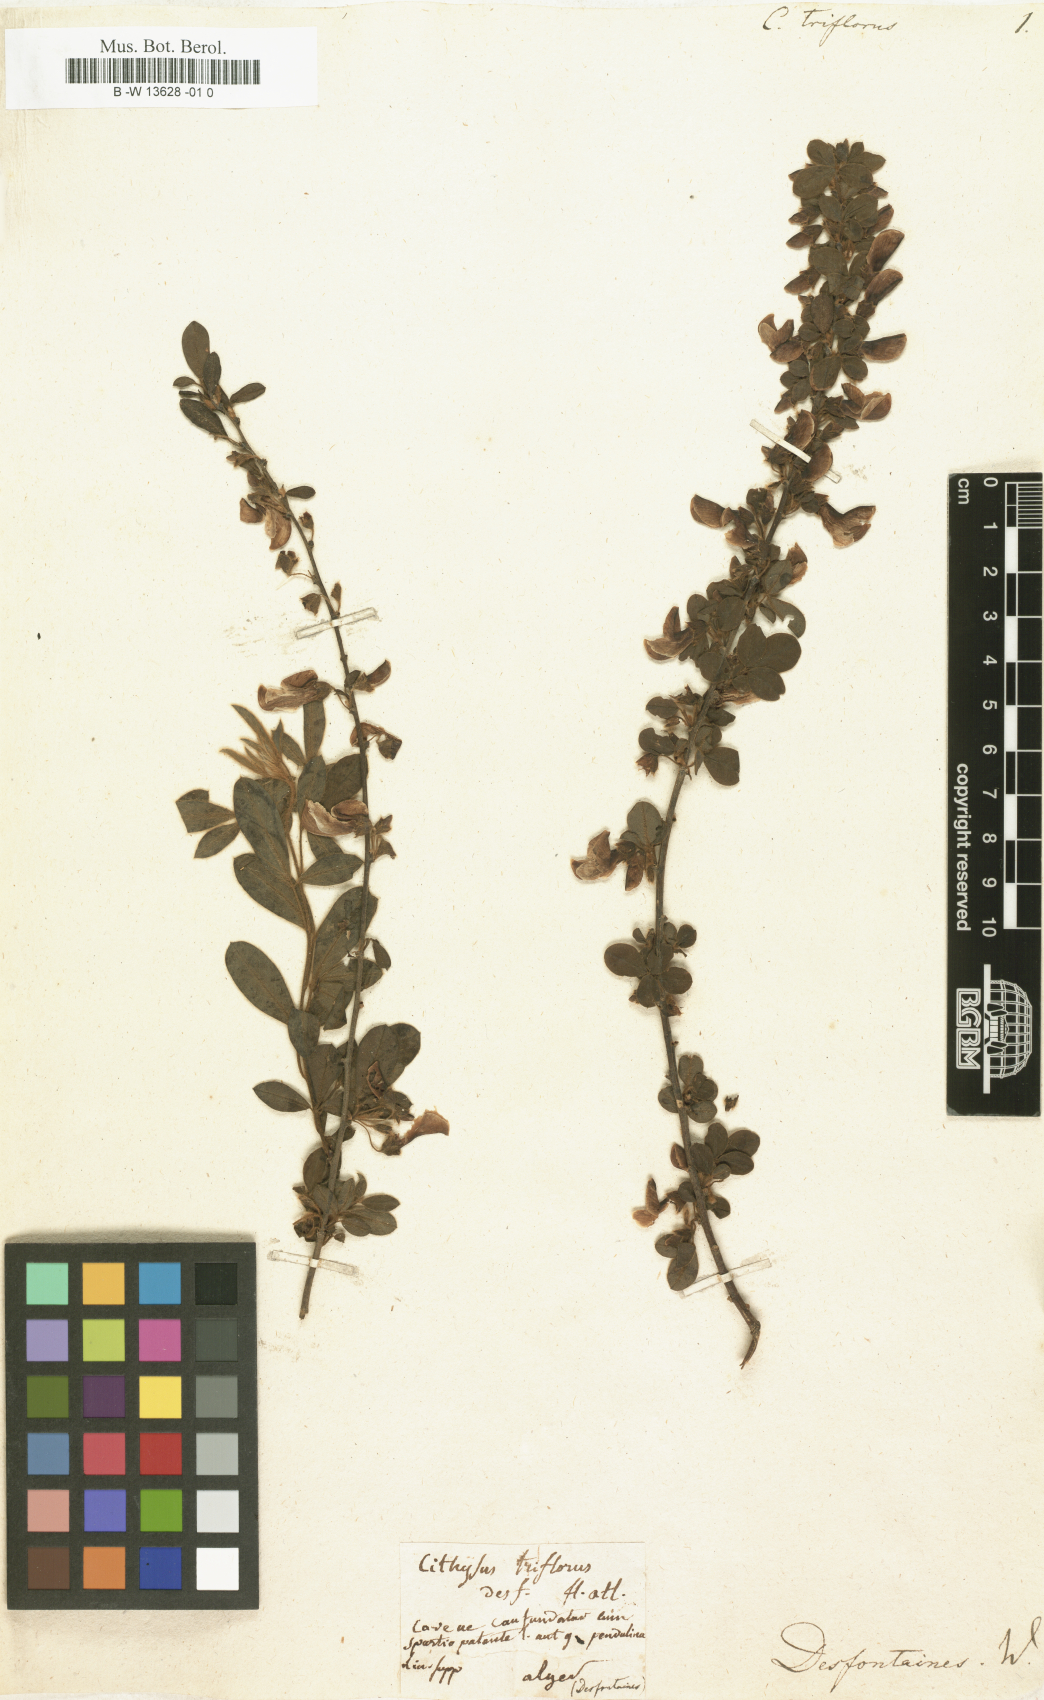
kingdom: Plantae
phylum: Tracheophyta
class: Magnoliopsida
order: Fabales
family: Fabaceae
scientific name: Fabaceae
